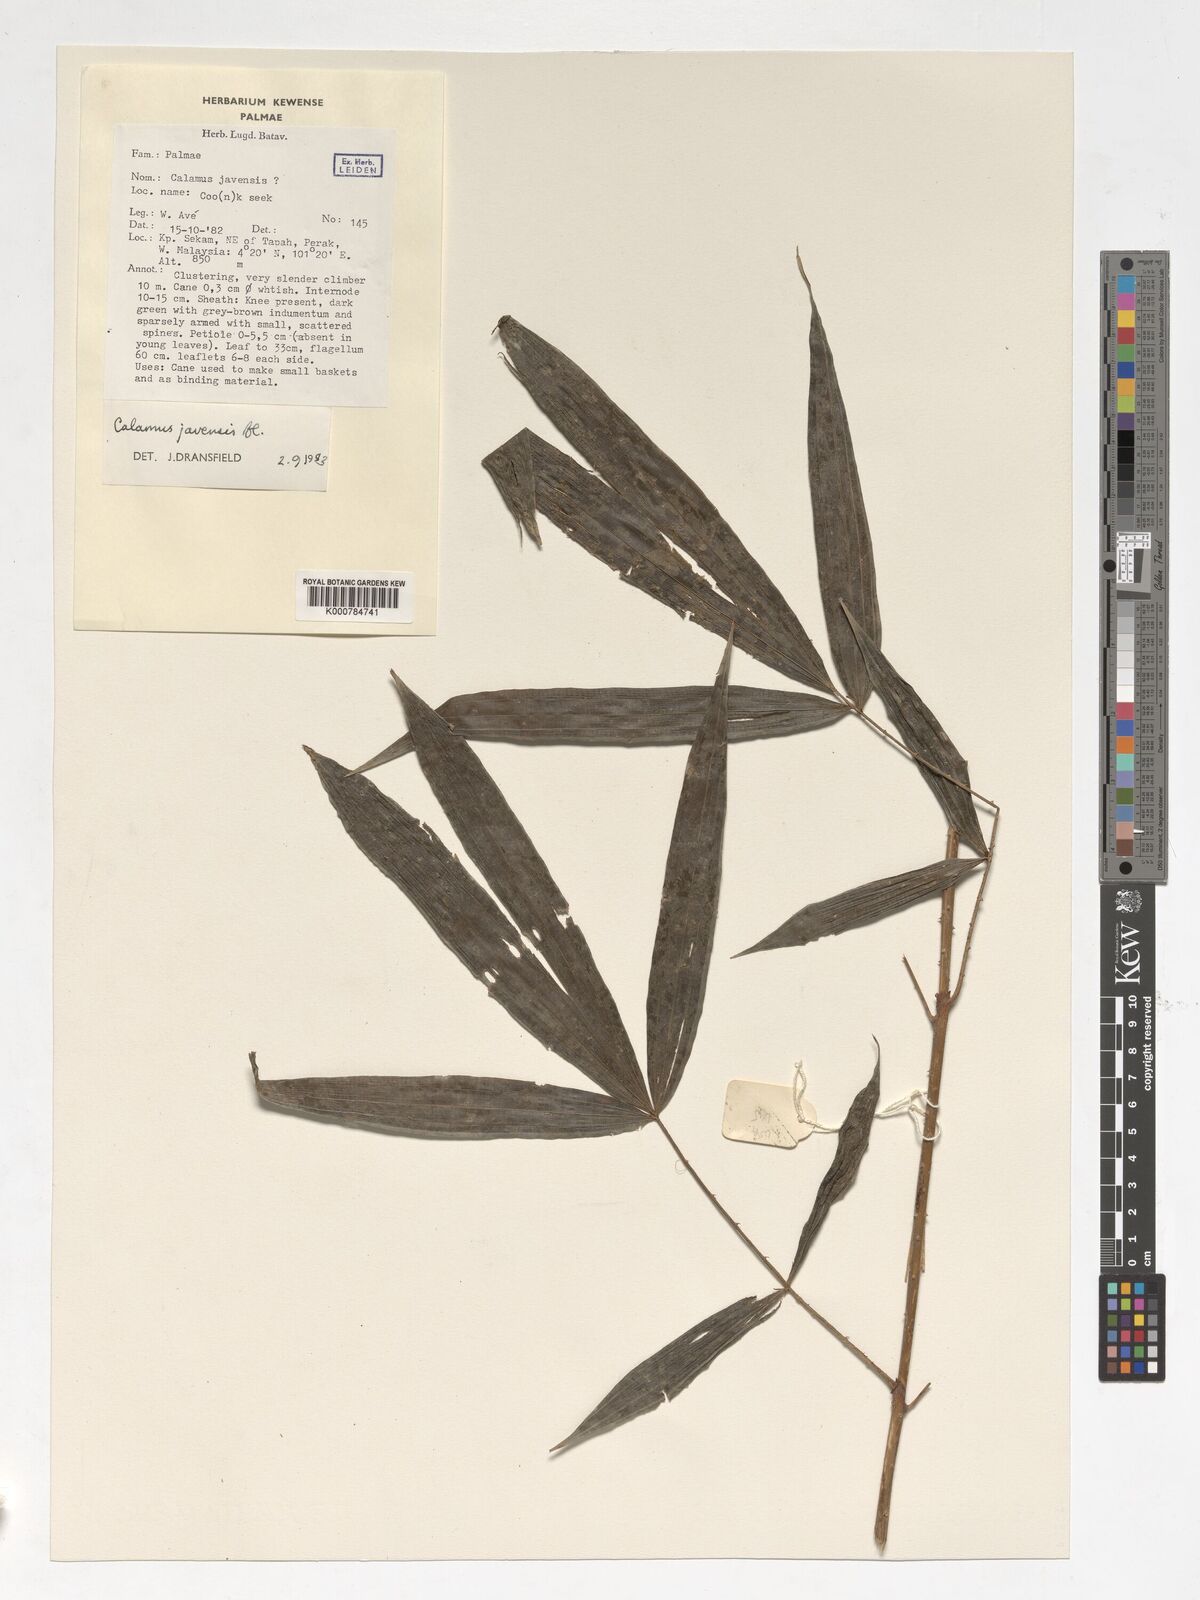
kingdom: Plantae
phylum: Tracheophyta
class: Liliopsida
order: Arecales
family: Arecaceae
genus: Calamus
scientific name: Calamus javensis
